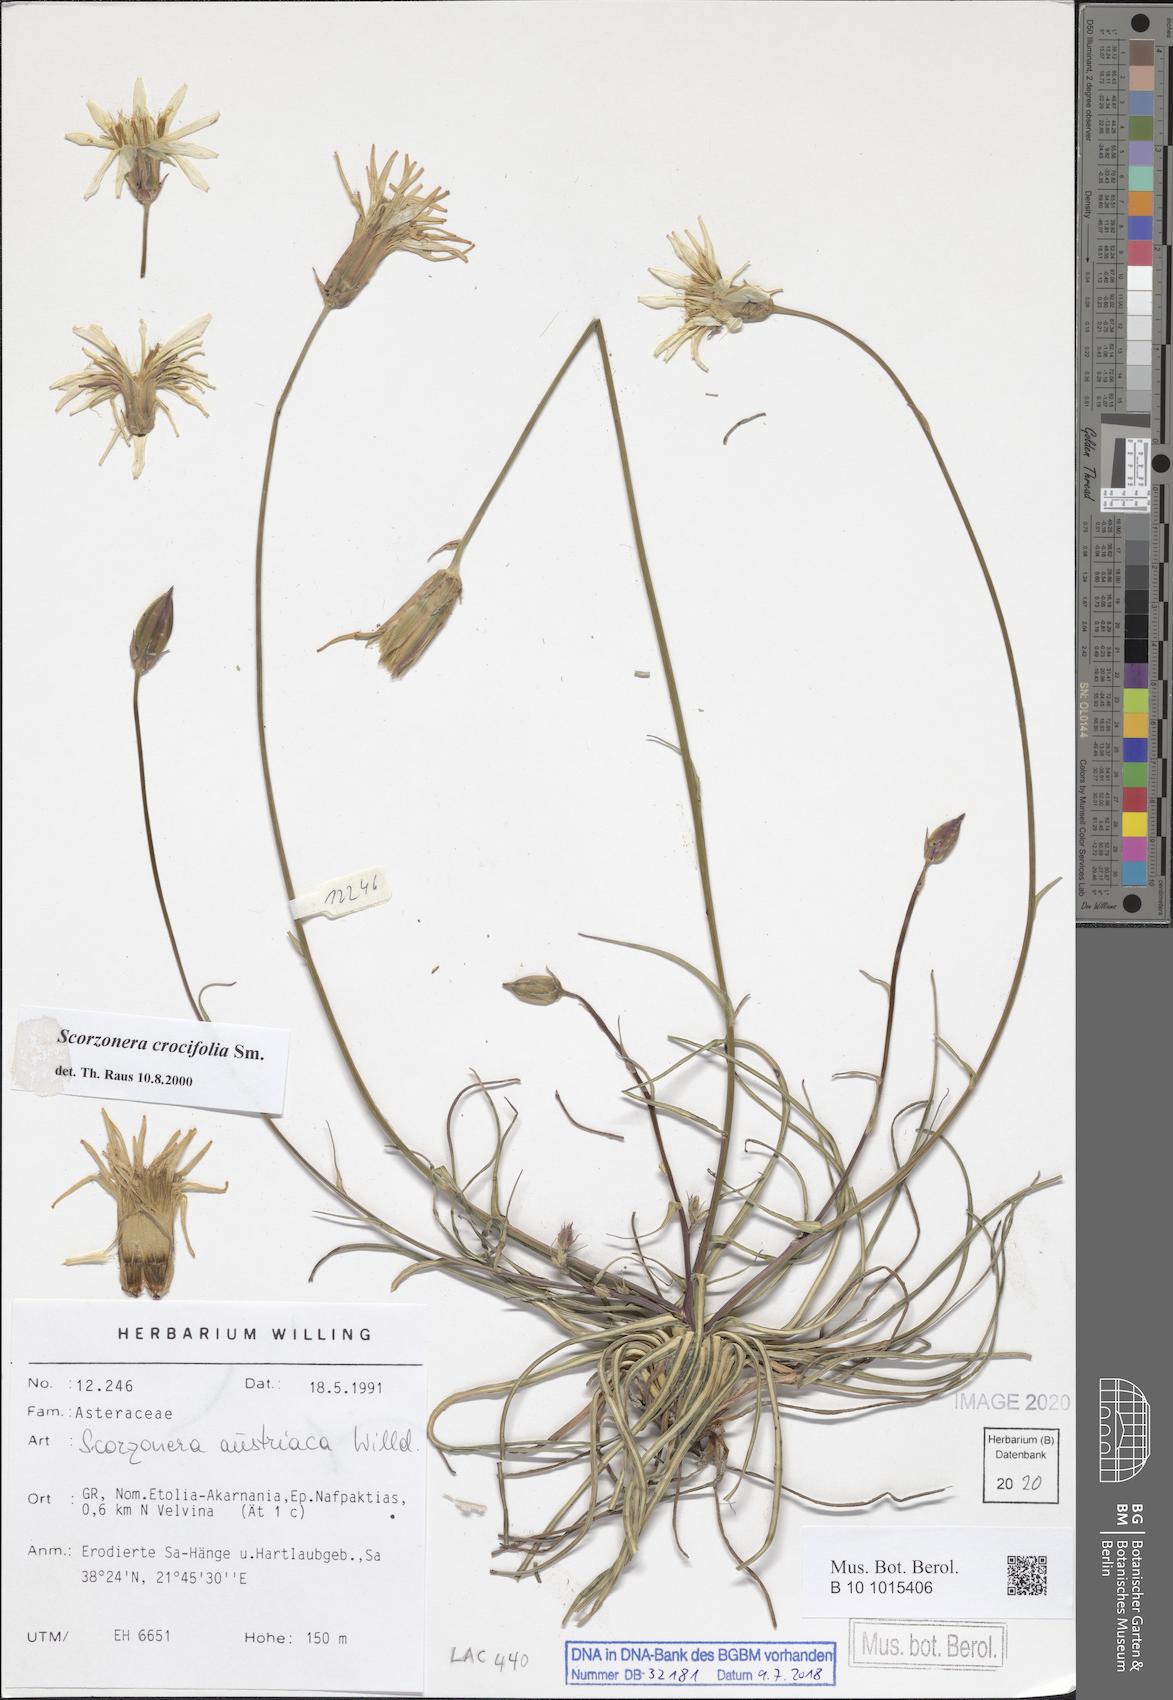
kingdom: Plantae
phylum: Tracheophyta
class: Magnoliopsida
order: Asterales
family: Asteraceae
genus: Pseudopodospermum
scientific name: Pseudopodospermum crocifolium
